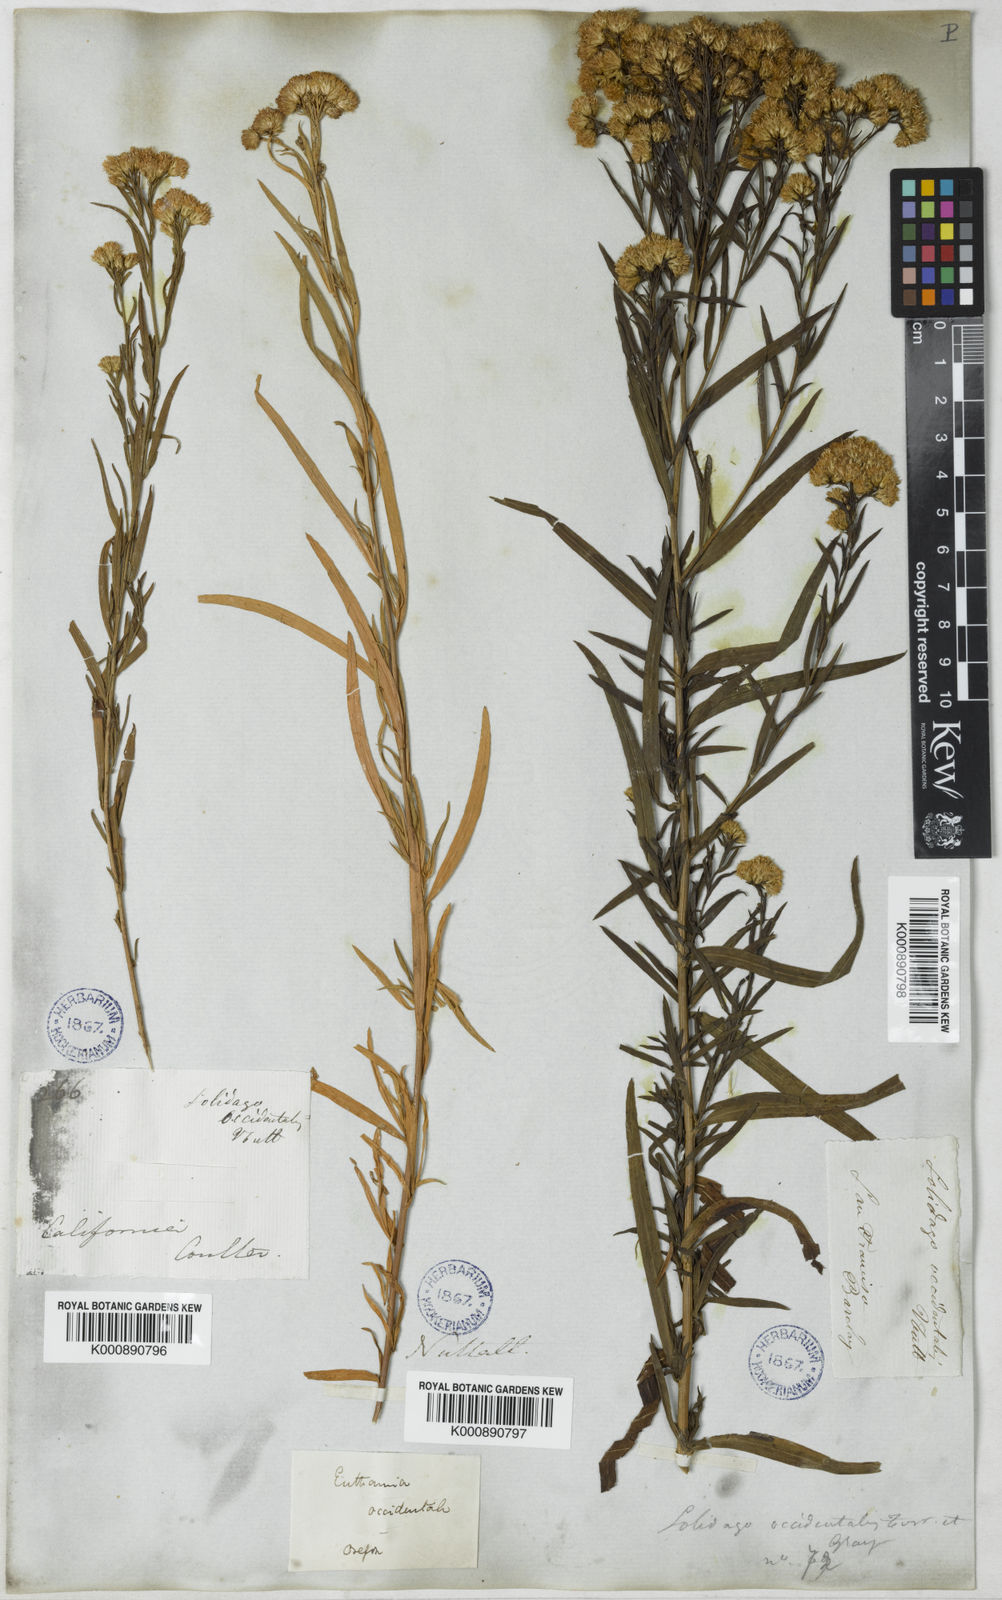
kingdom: Plantae
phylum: Tracheophyta
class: Magnoliopsida
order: Asterales
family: Asteraceae
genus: Euthamia
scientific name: Euthamia occidentalis
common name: Western goldentop
